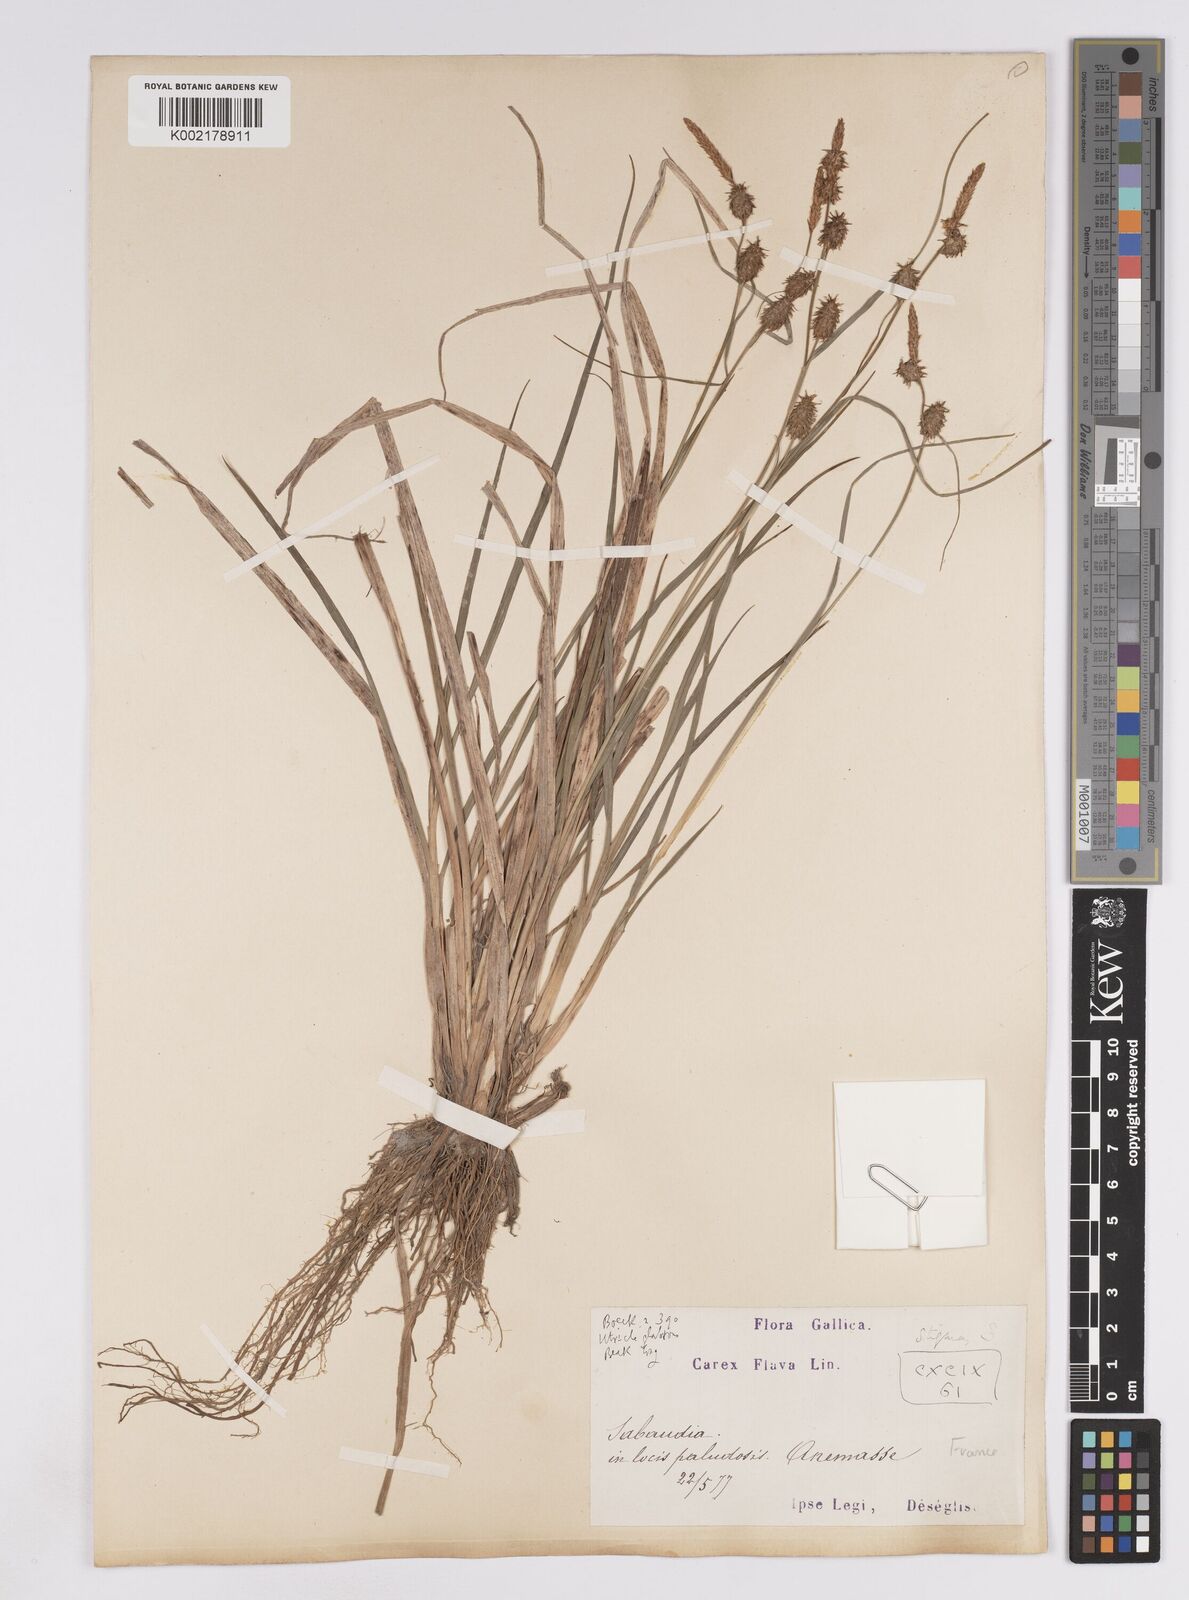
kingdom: Plantae
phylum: Tracheophyta
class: Liliopsida
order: Poales
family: Cyperaceae
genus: Carex
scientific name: Carex lepidocarpa
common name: Long-stalked yellow-sedge
